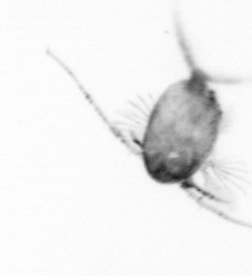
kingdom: Animalia
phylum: Arthropoda
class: Copepoda
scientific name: Copepoda
